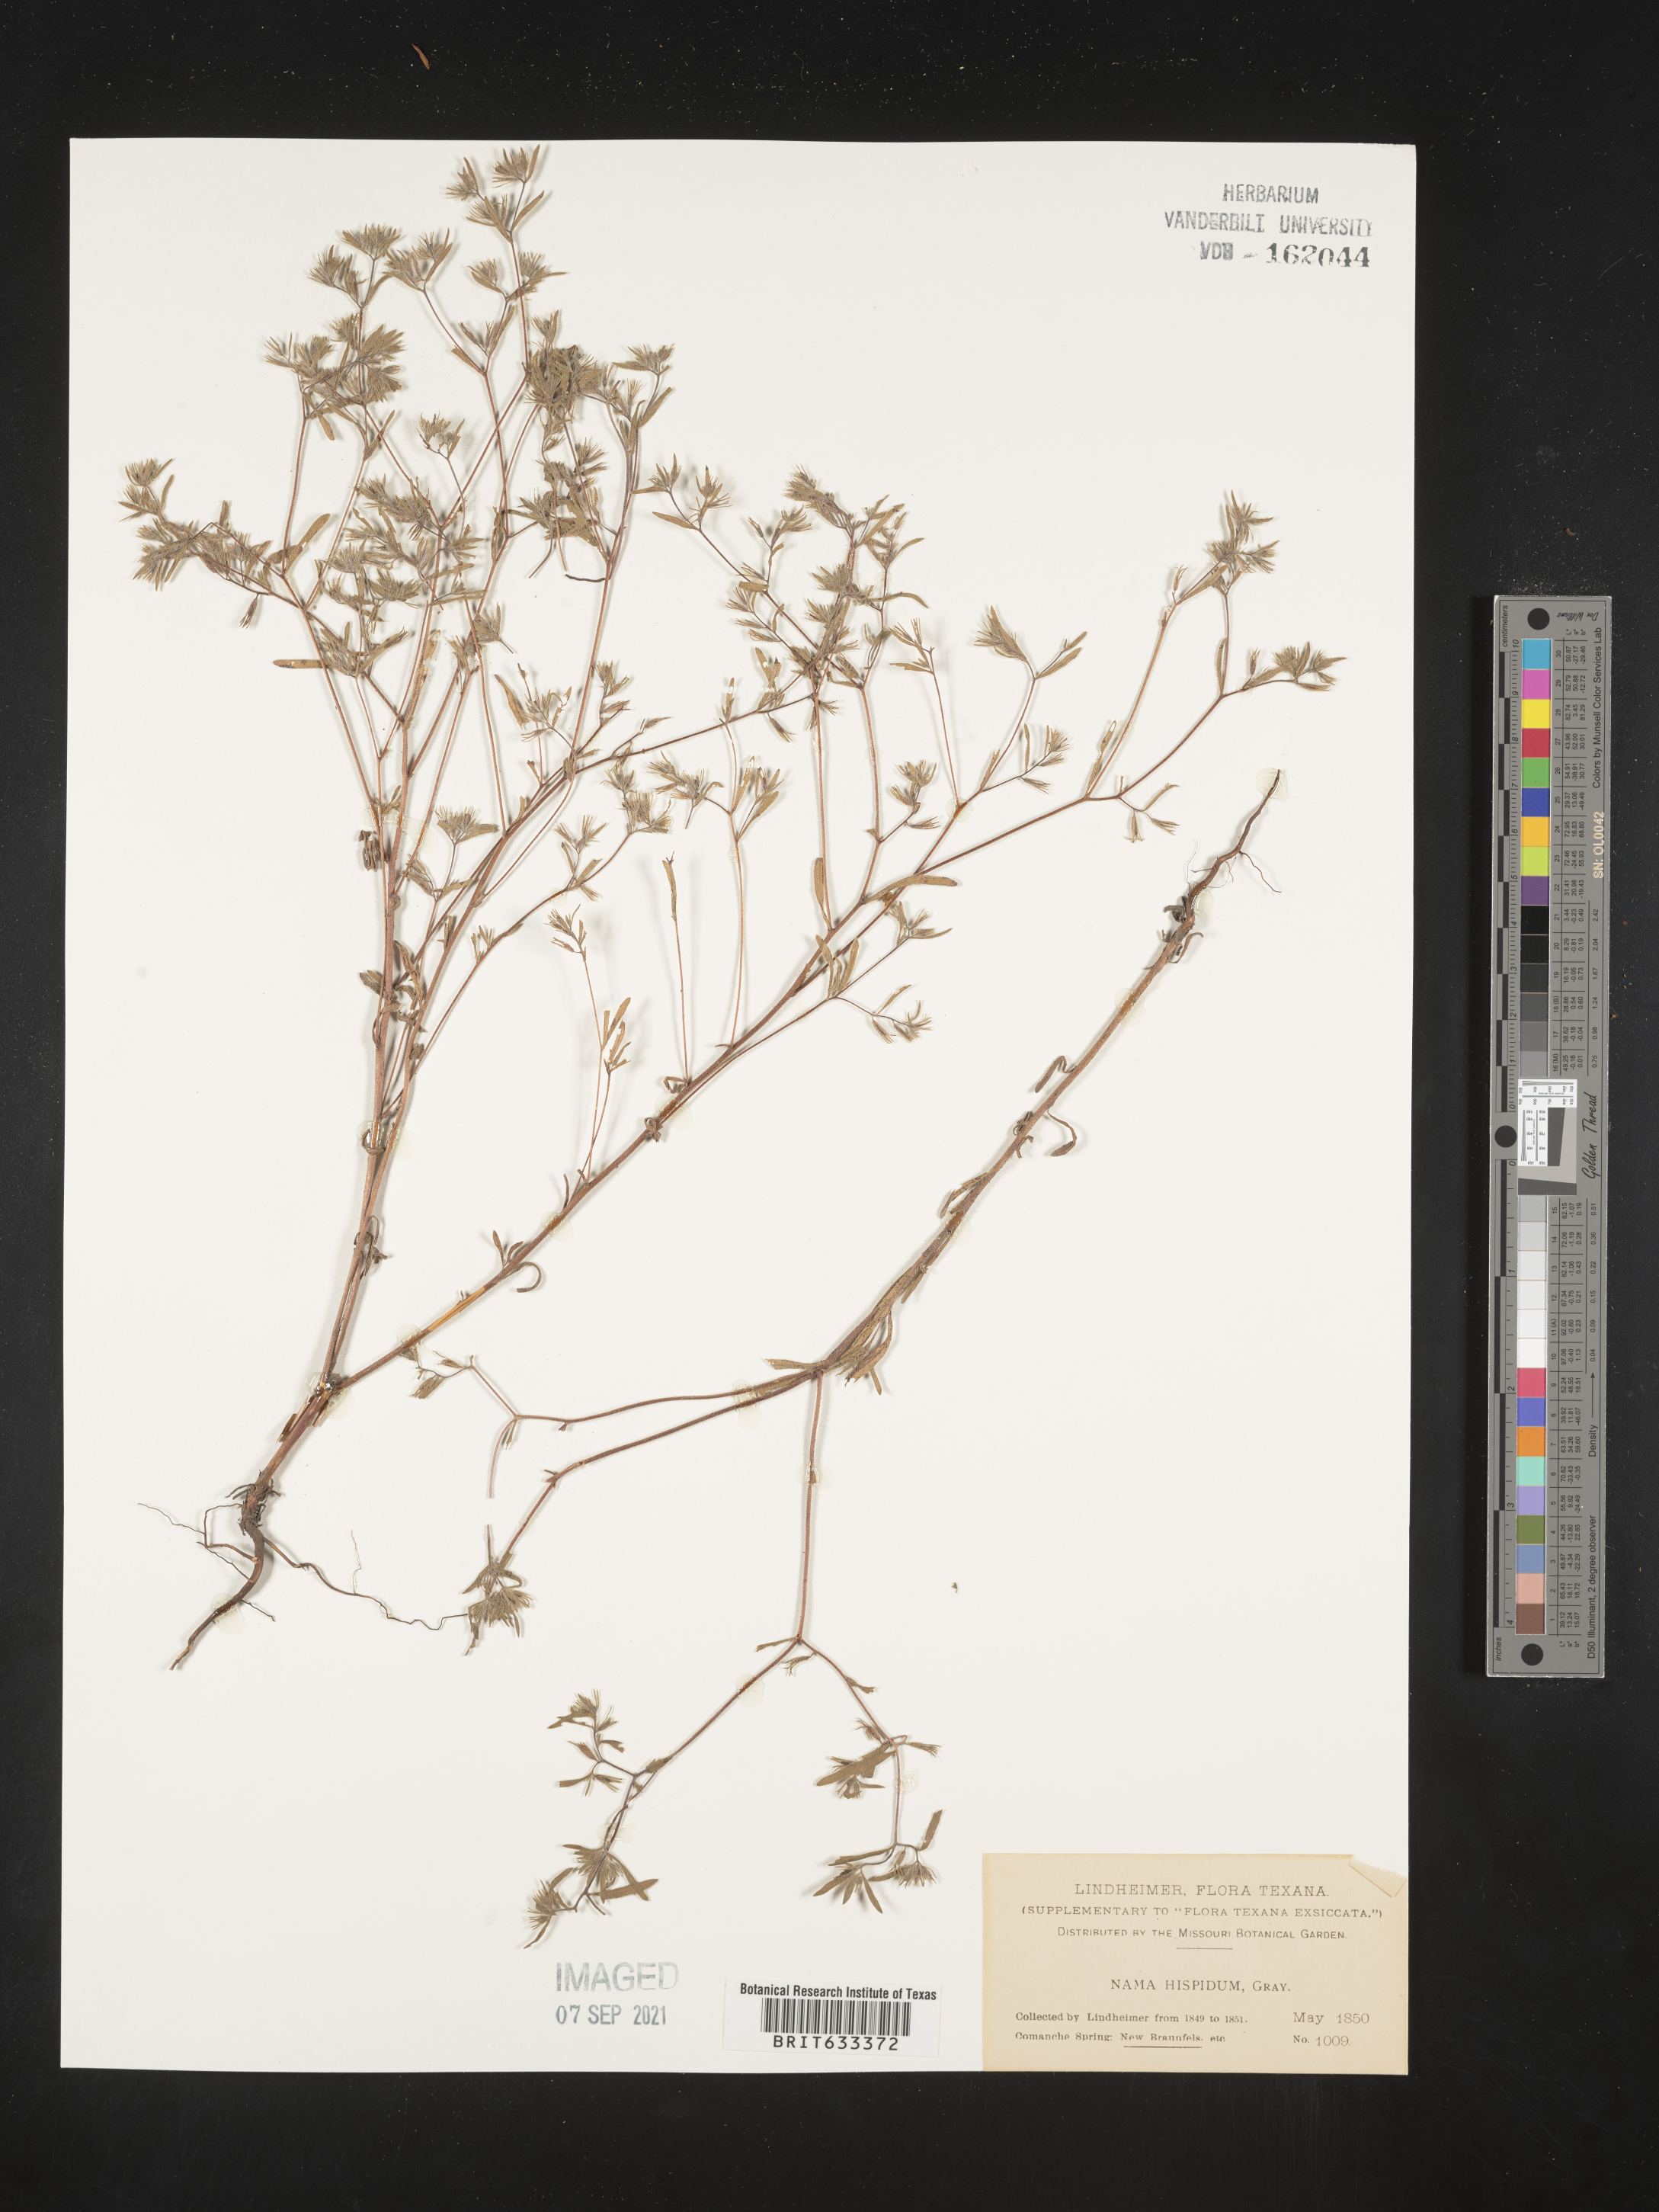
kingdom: Plantae
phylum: Tracheophyta
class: Magnoliopsida
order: Boraginales
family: Namaceae
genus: Nama
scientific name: Nama hispida
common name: Bristly nama
